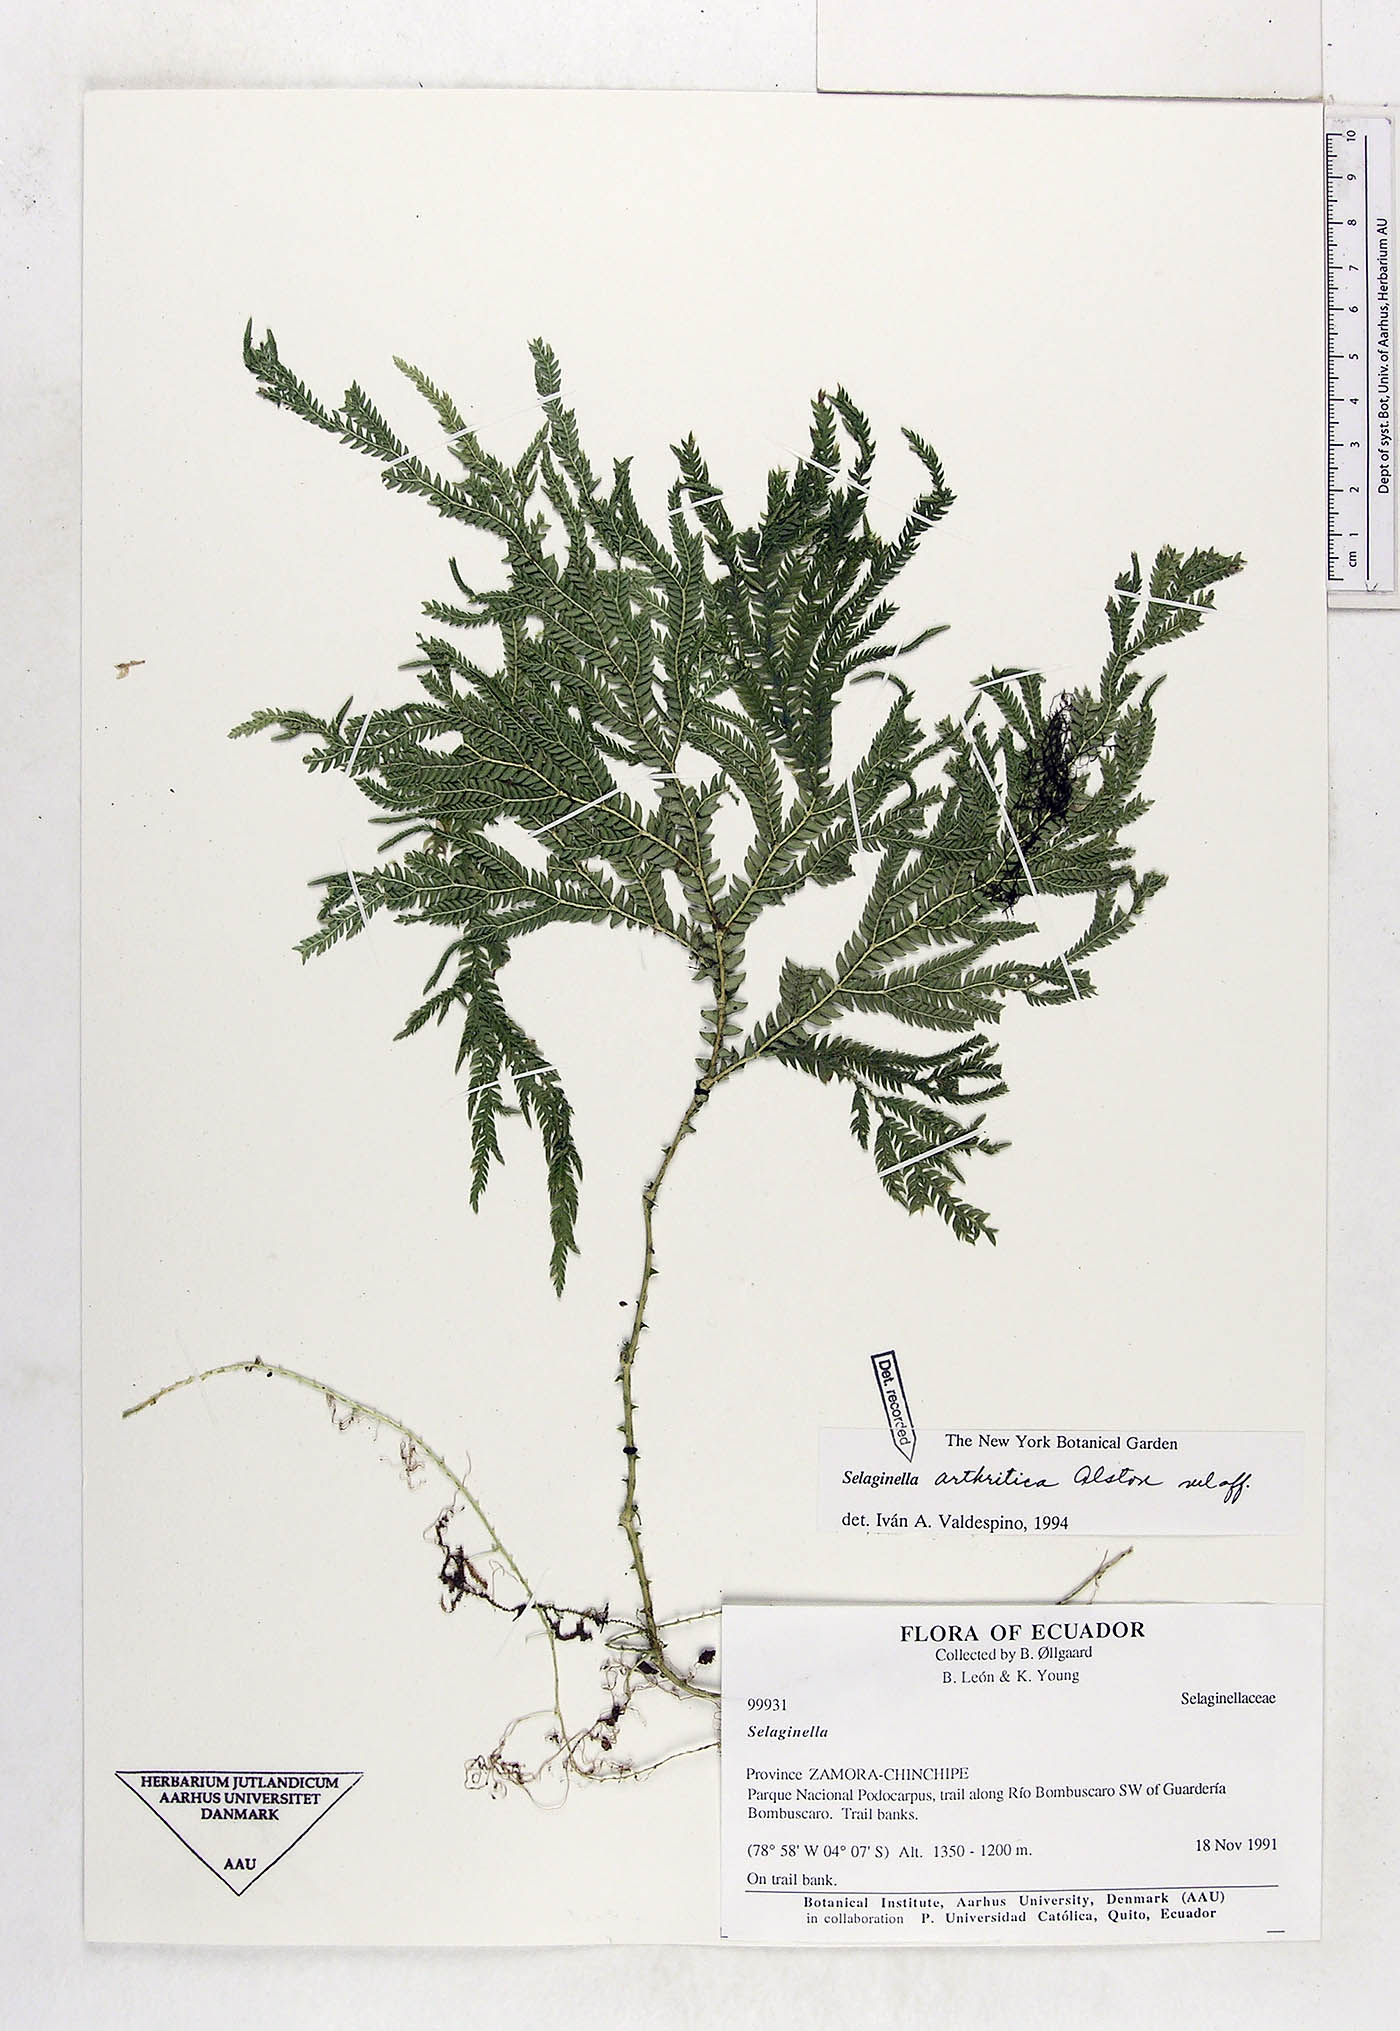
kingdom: Plantae
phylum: Tracheophyta
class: Lycopodiopsida
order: Selaginellales
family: Selaginellaceae
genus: Selaginella
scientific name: Selaginella arthritica
